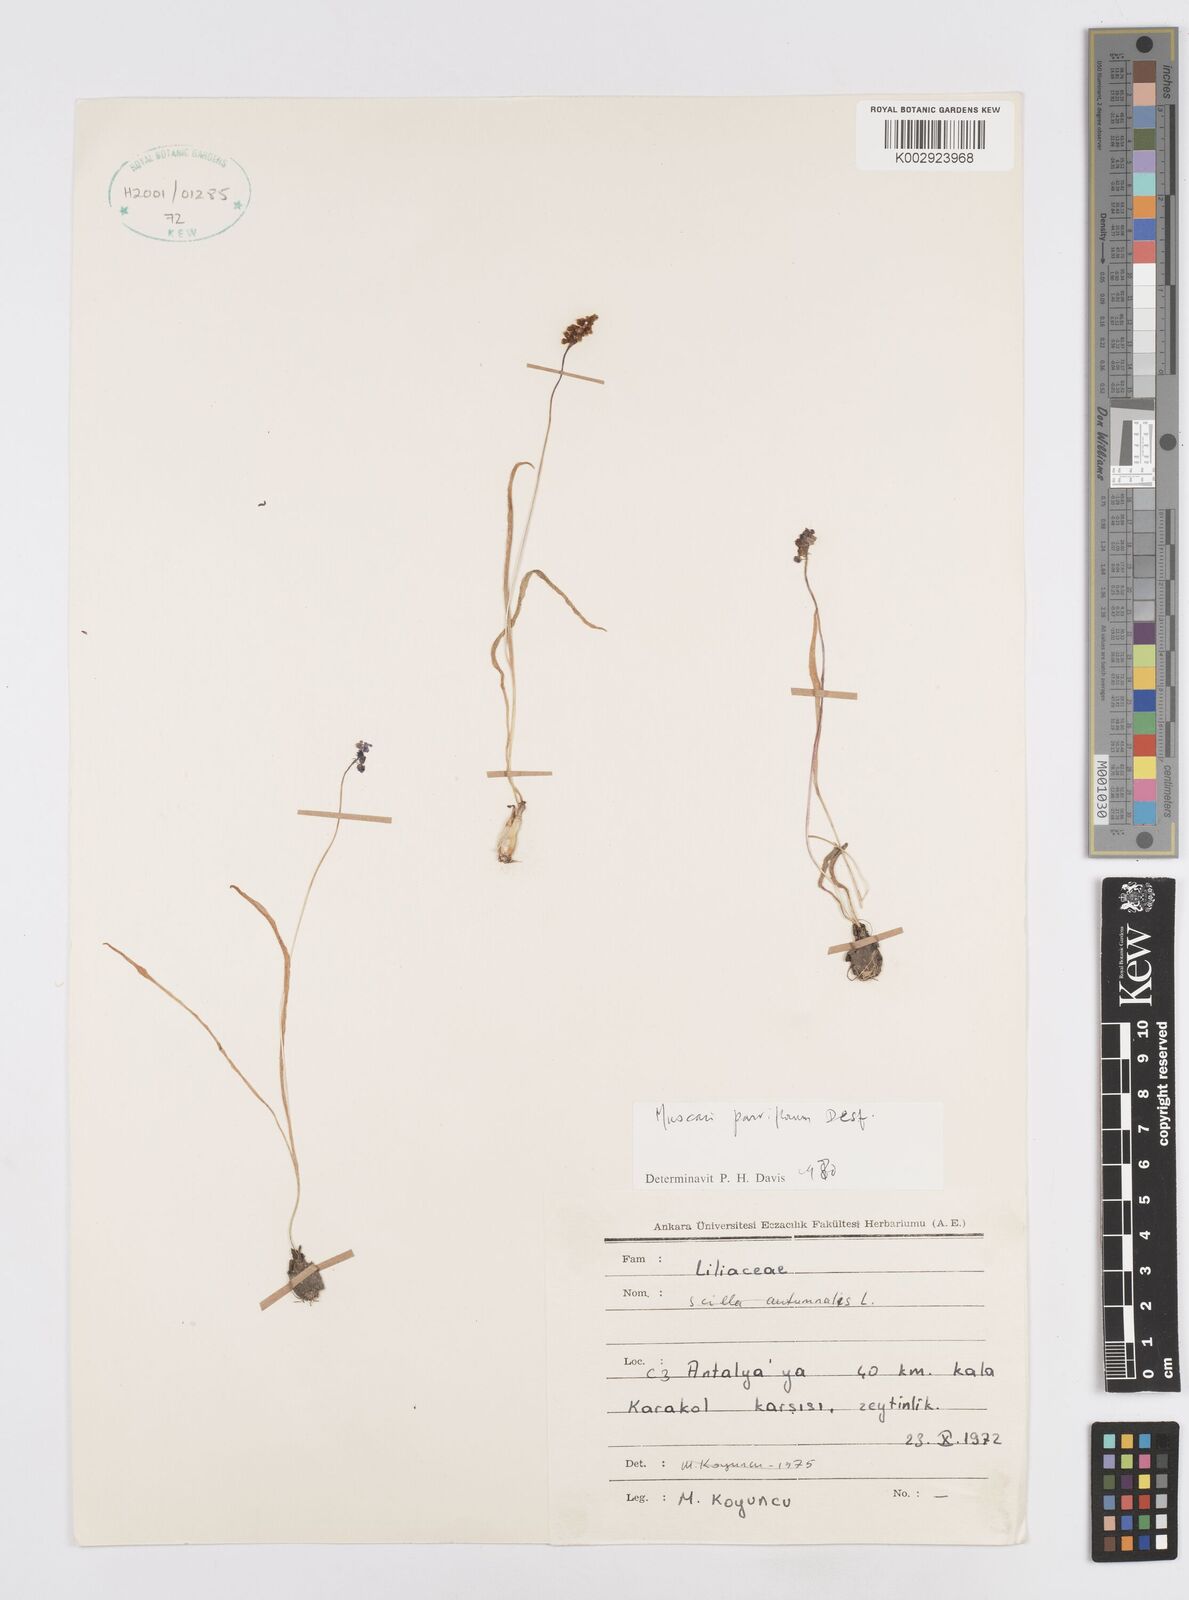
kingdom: Plantae
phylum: Tracheophyta
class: Liliopsida
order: Asparagales
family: Asparagaceae
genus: Muscari
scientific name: Muscari parviflorum
